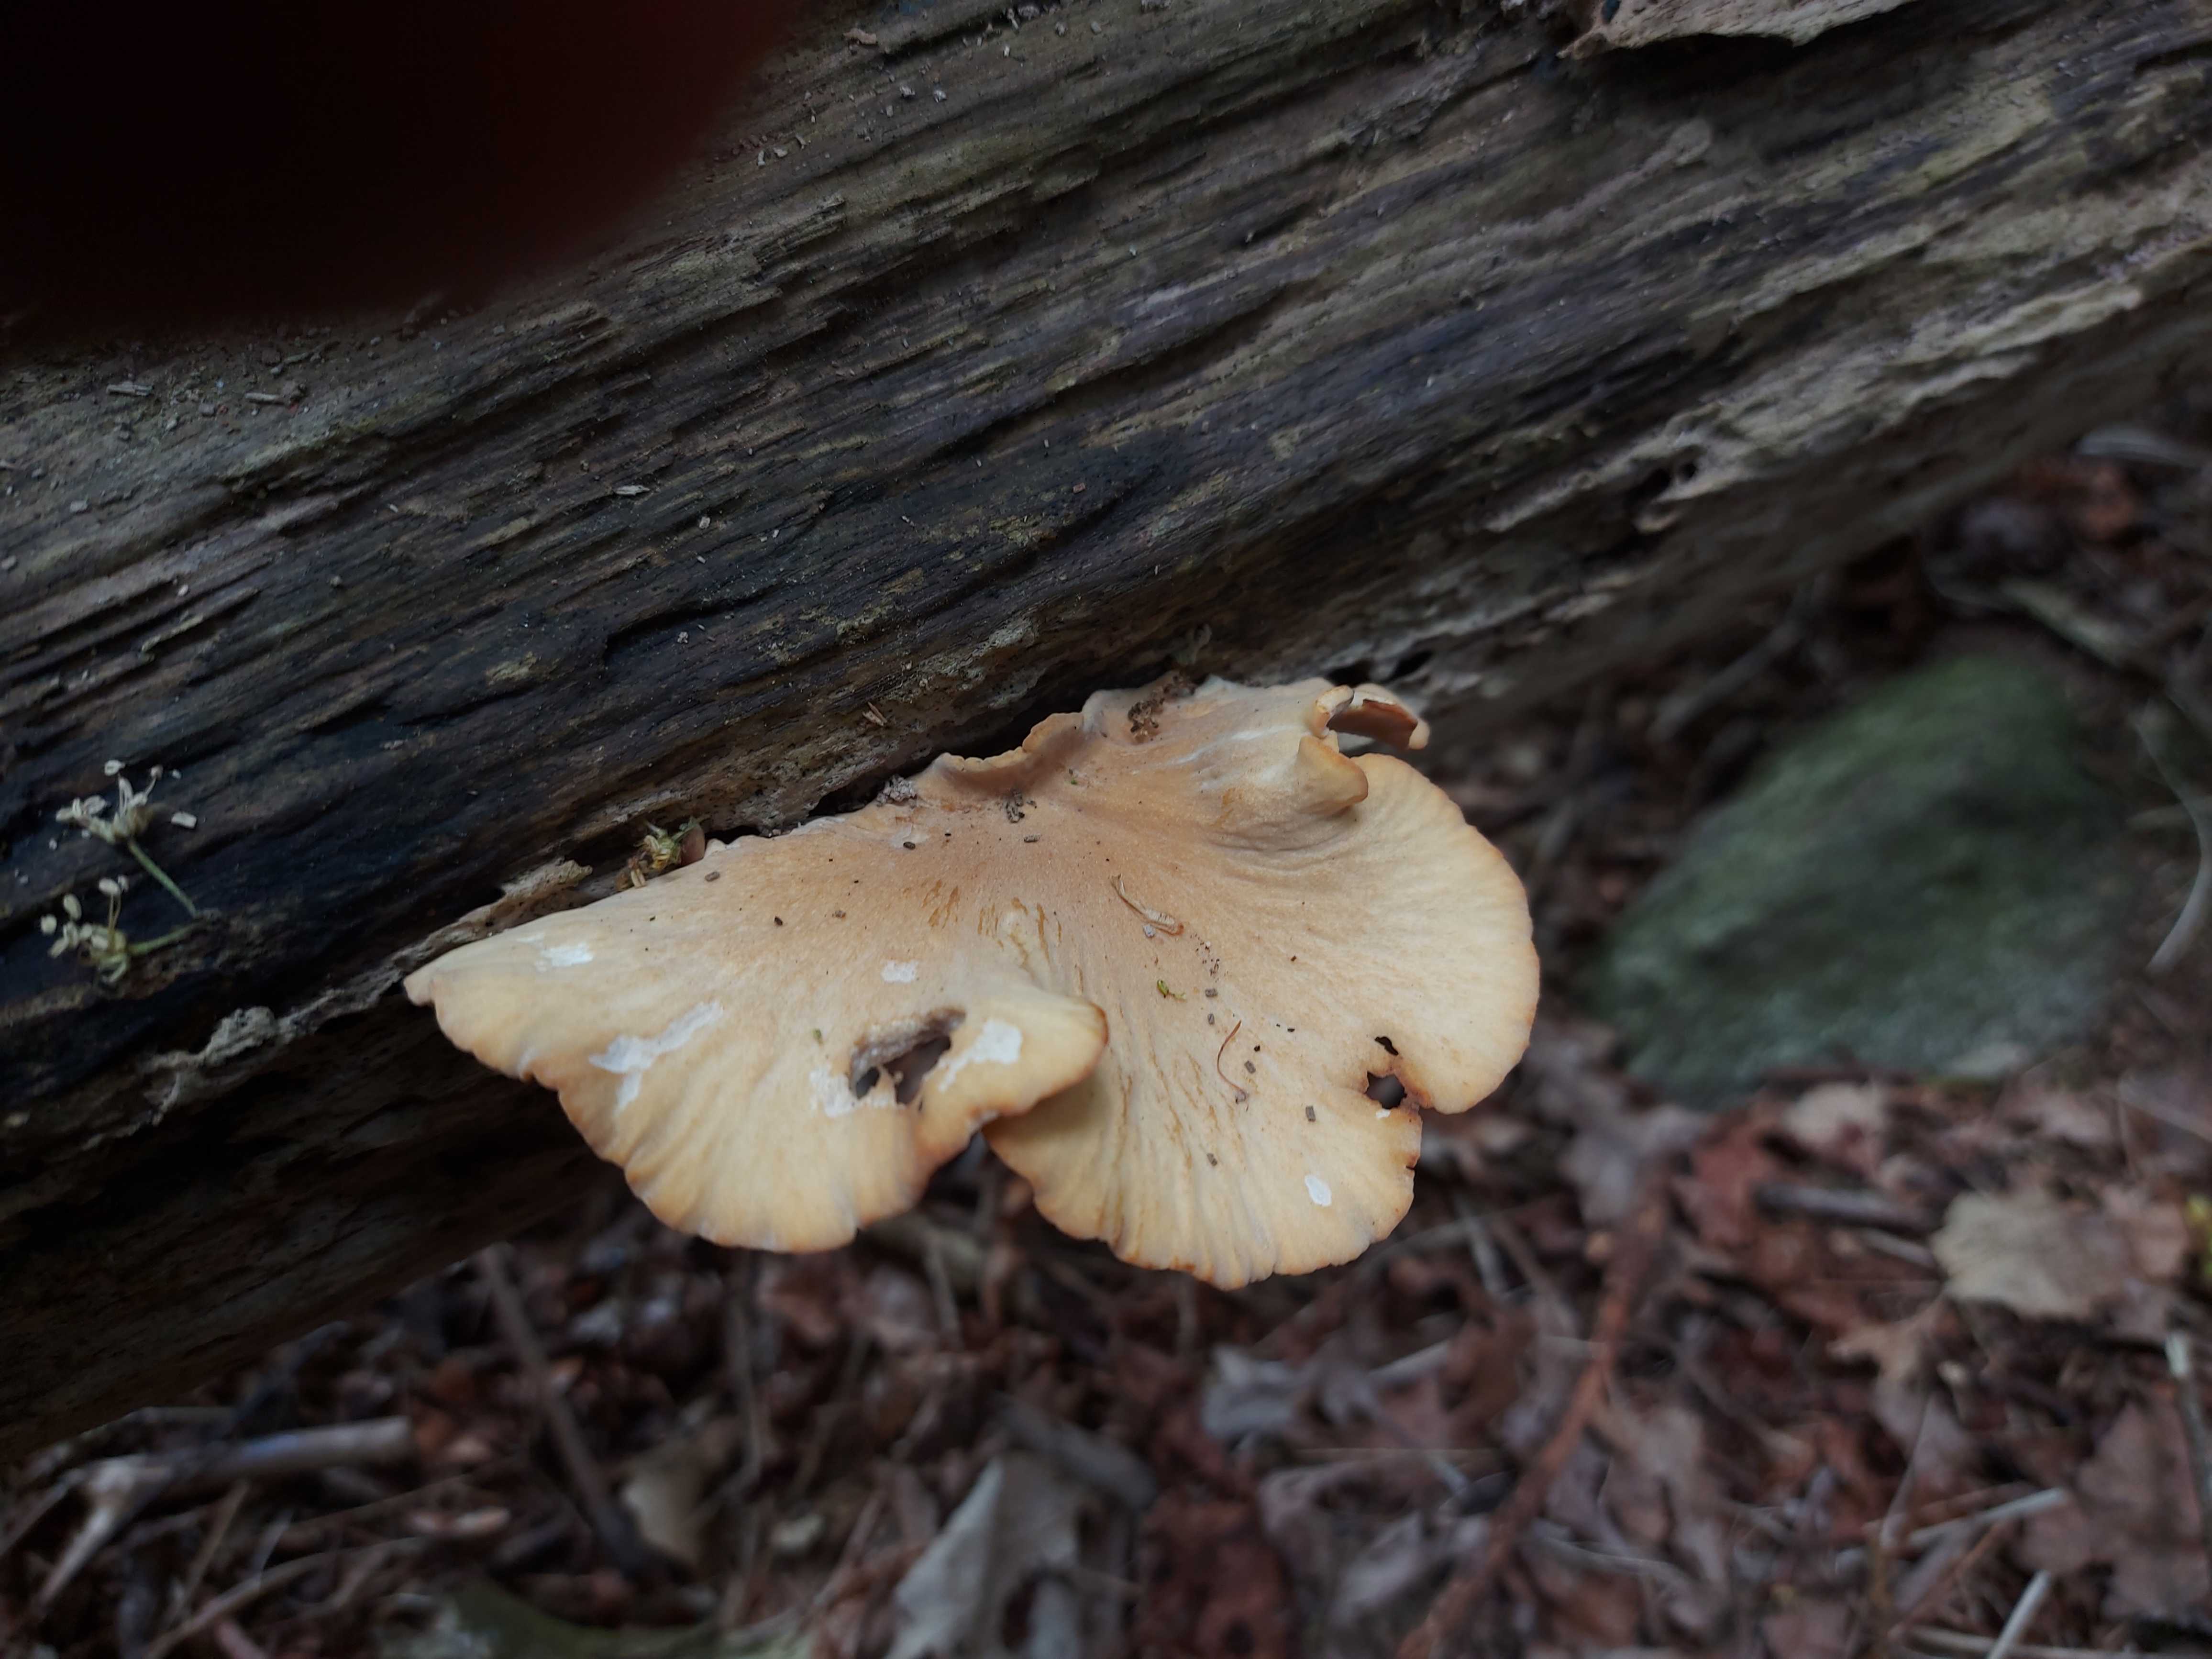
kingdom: Fungi
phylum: Basidiomycota
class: Agaricomycetes
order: Polyporales
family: Polyporaceae
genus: Cerioporus
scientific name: Cerioporus varius
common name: foranderlig stilkporesvamp
